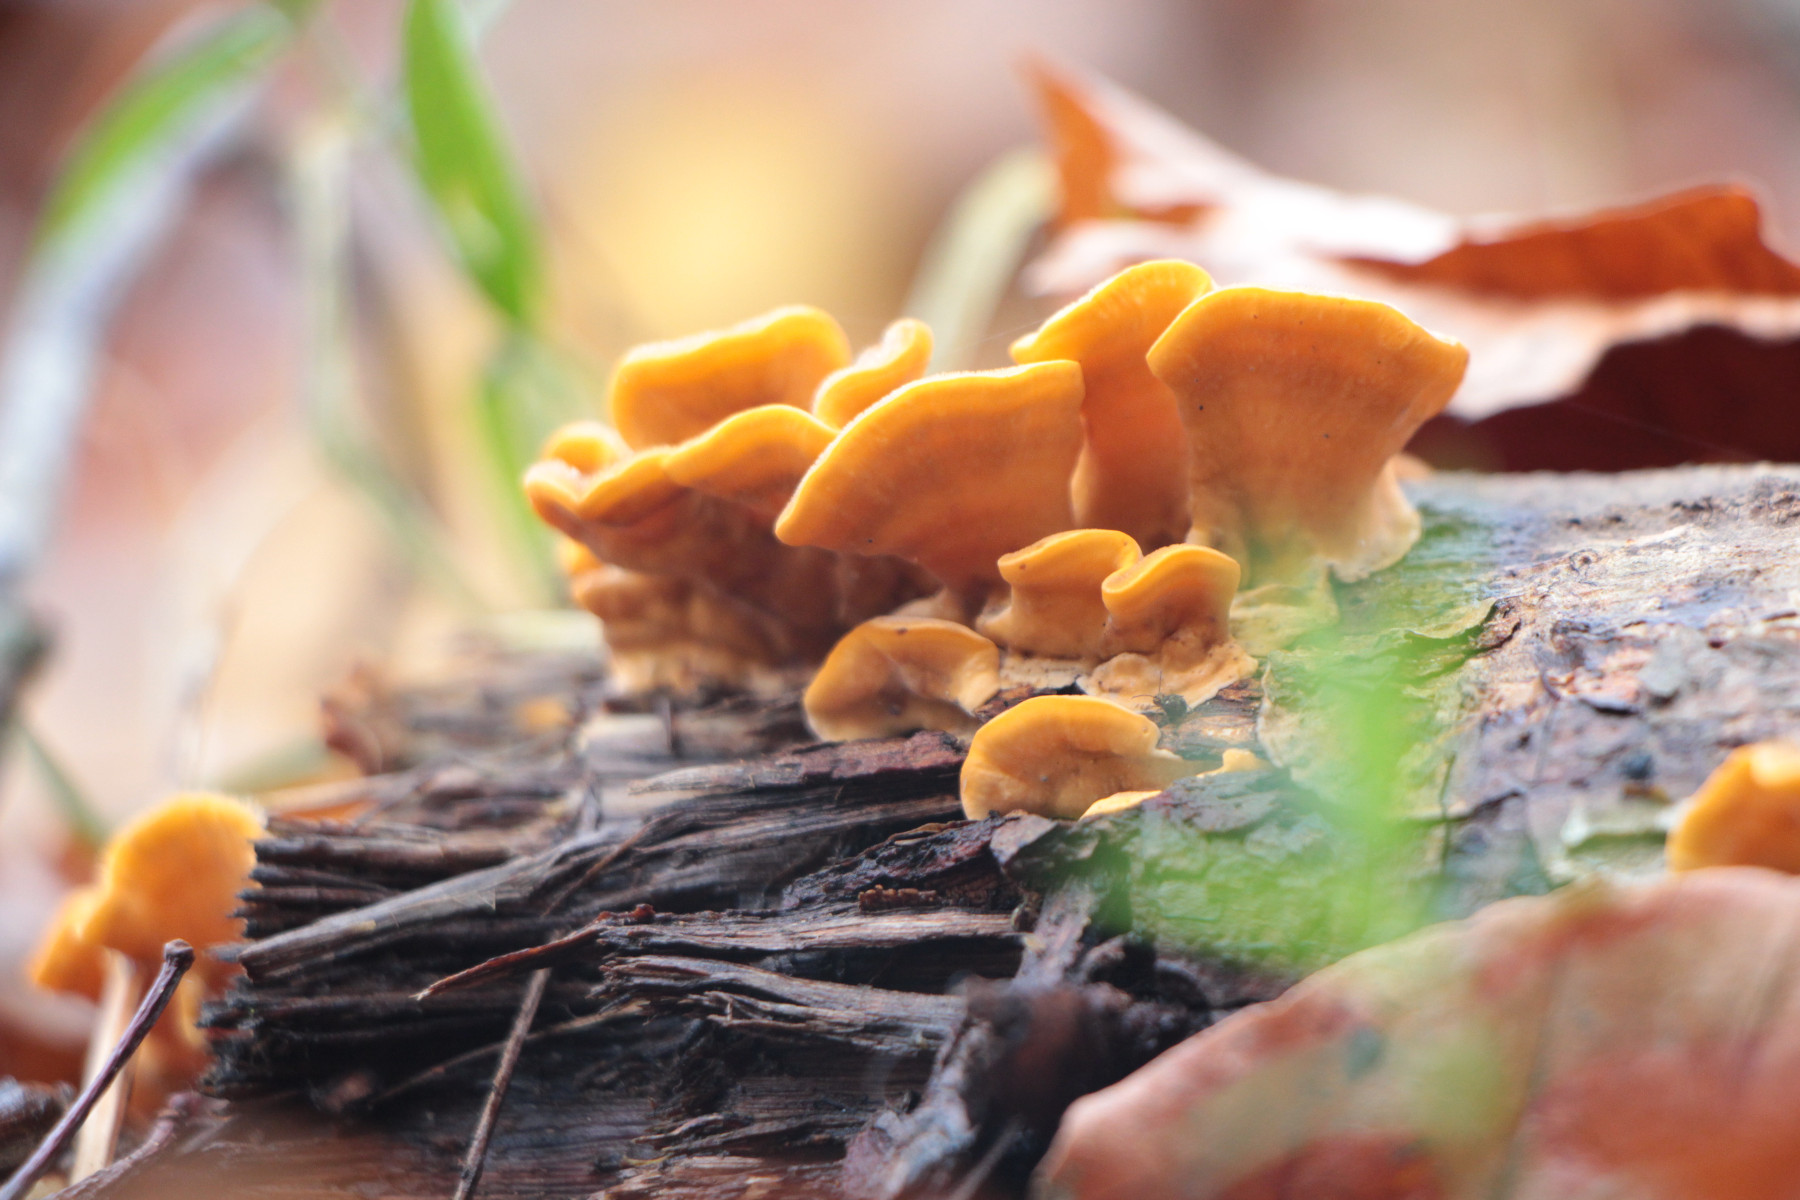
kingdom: Fungi
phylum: Basidiomycota
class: Agaricomycetes
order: Russulales
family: Stereaceae
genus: Stereum
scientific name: Stereum hirsutum
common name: håret lædersvamp
